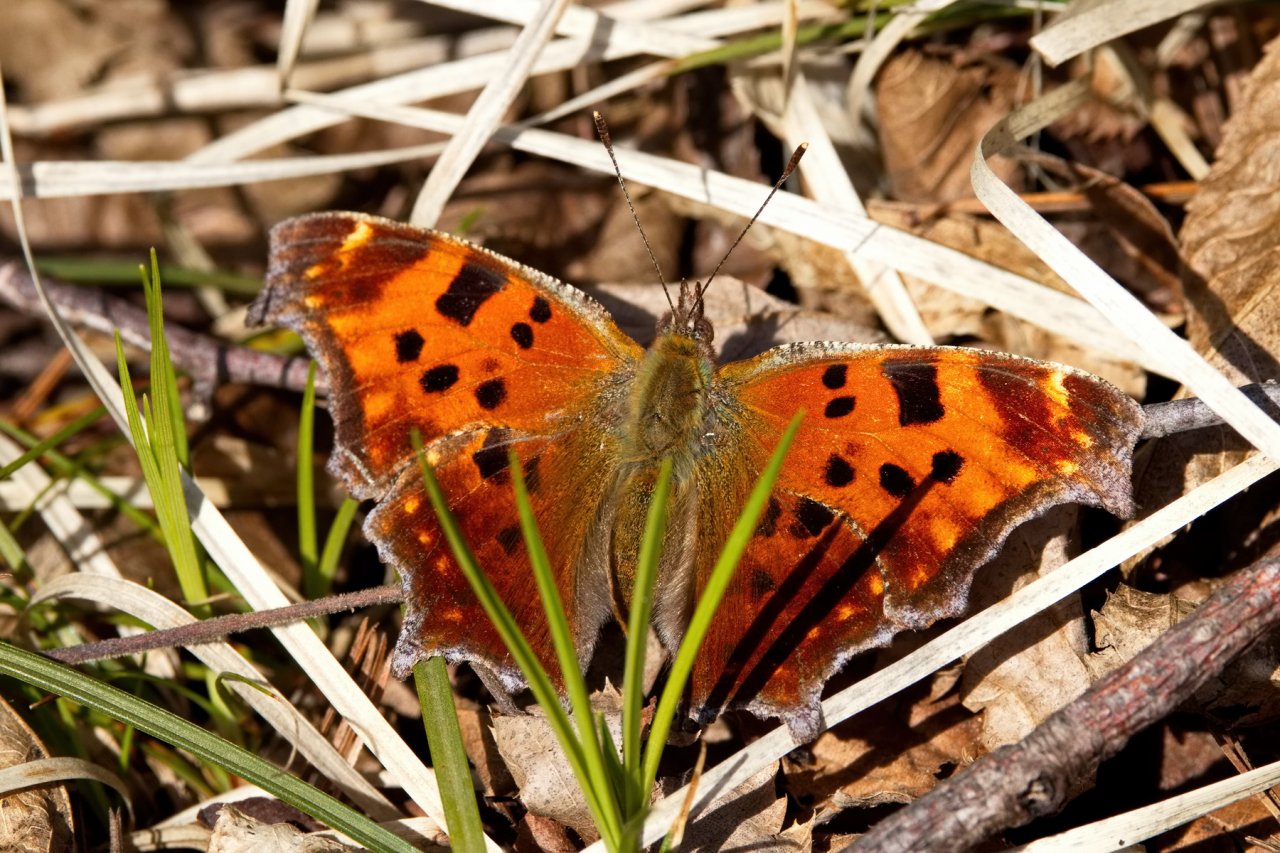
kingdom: Animalia
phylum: Arthropoda
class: Insecta
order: Lepidoptera
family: Nymphalidae
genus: Polygonia
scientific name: Polygonia comma
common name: Eastern Comma
